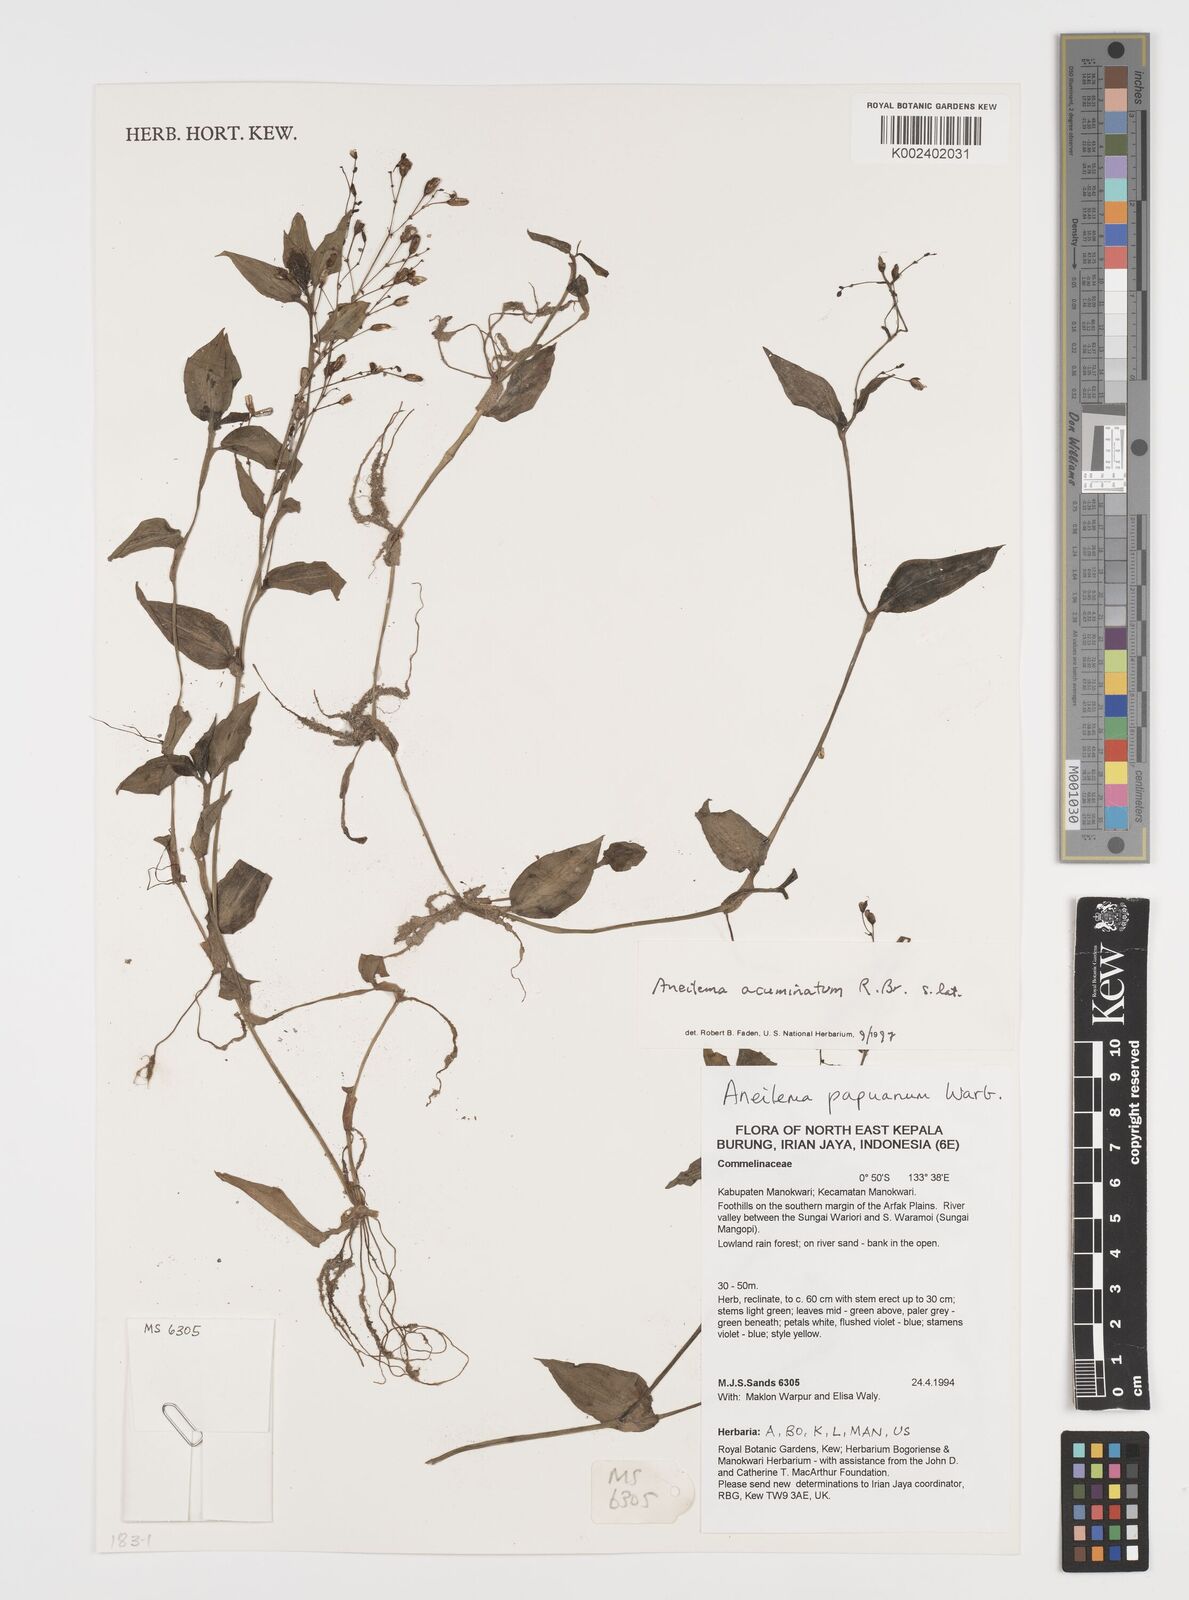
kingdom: Plantae
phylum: Tracheophyta
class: Liliopsida
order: Commelinales
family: Commelinaceae
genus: Aneilema
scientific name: Aneilema acuminatum
